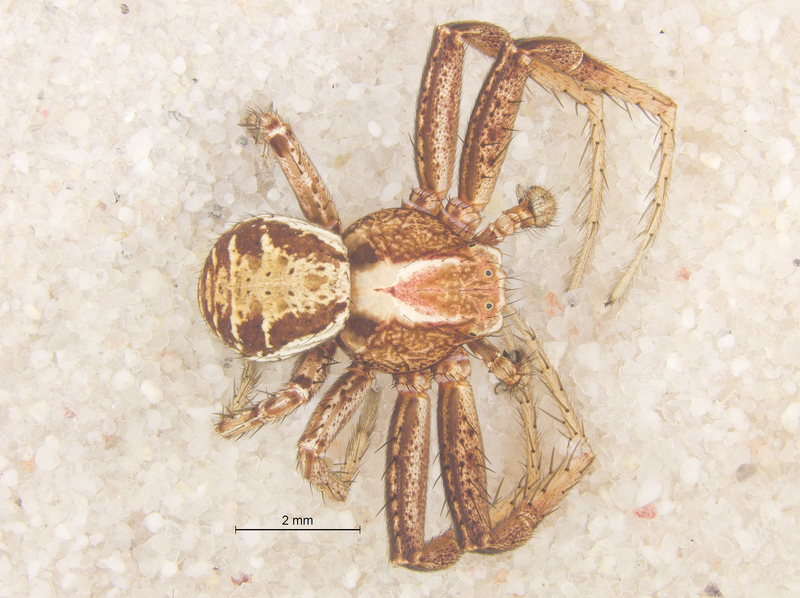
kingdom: Animalia
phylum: Arthropoda
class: Arachnida
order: Araneae
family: Thomisidae
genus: Xysticus
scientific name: Xysticus cristatus
